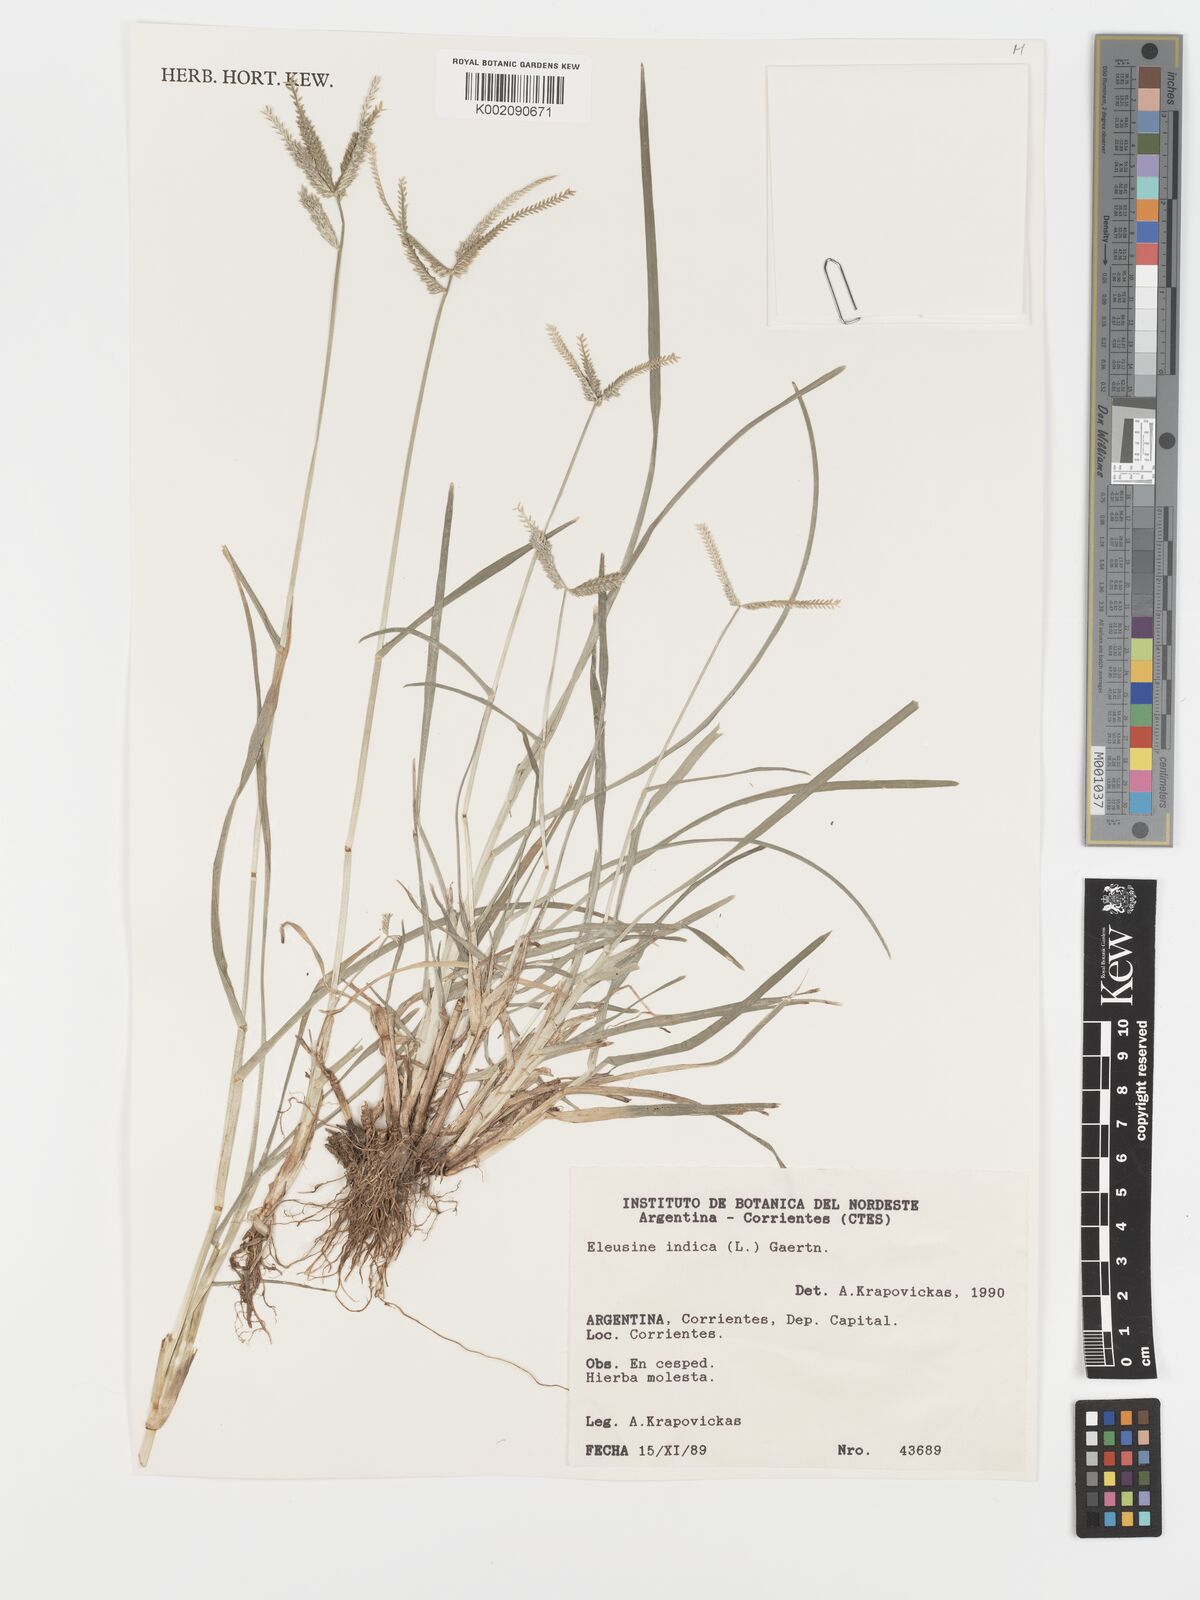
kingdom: Plantae
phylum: Tracheophyta
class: Liliopsida
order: Poales
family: Poaceae
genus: Eleusine
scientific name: Eleusine indica
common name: Yard-grass
